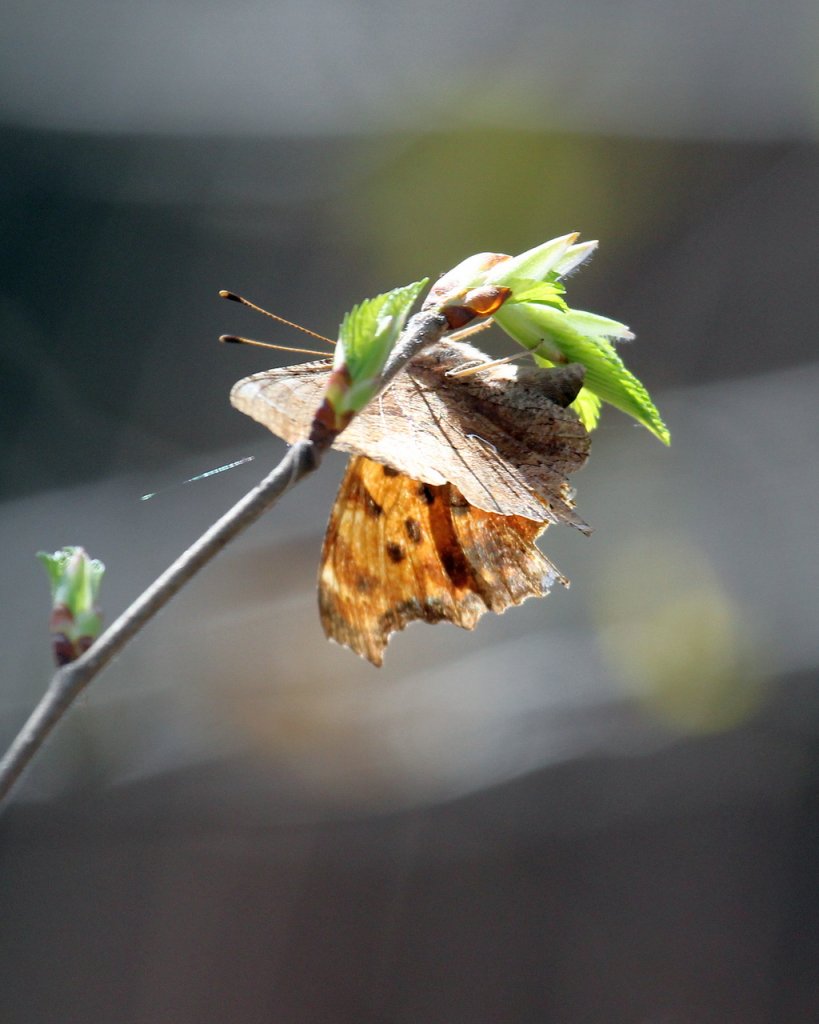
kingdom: Animalia
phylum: Arthropoda
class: Insecta
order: Lepidoptera
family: Nymphalidae
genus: Polygonia
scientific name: Polygonia comma
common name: Eastern Comma
